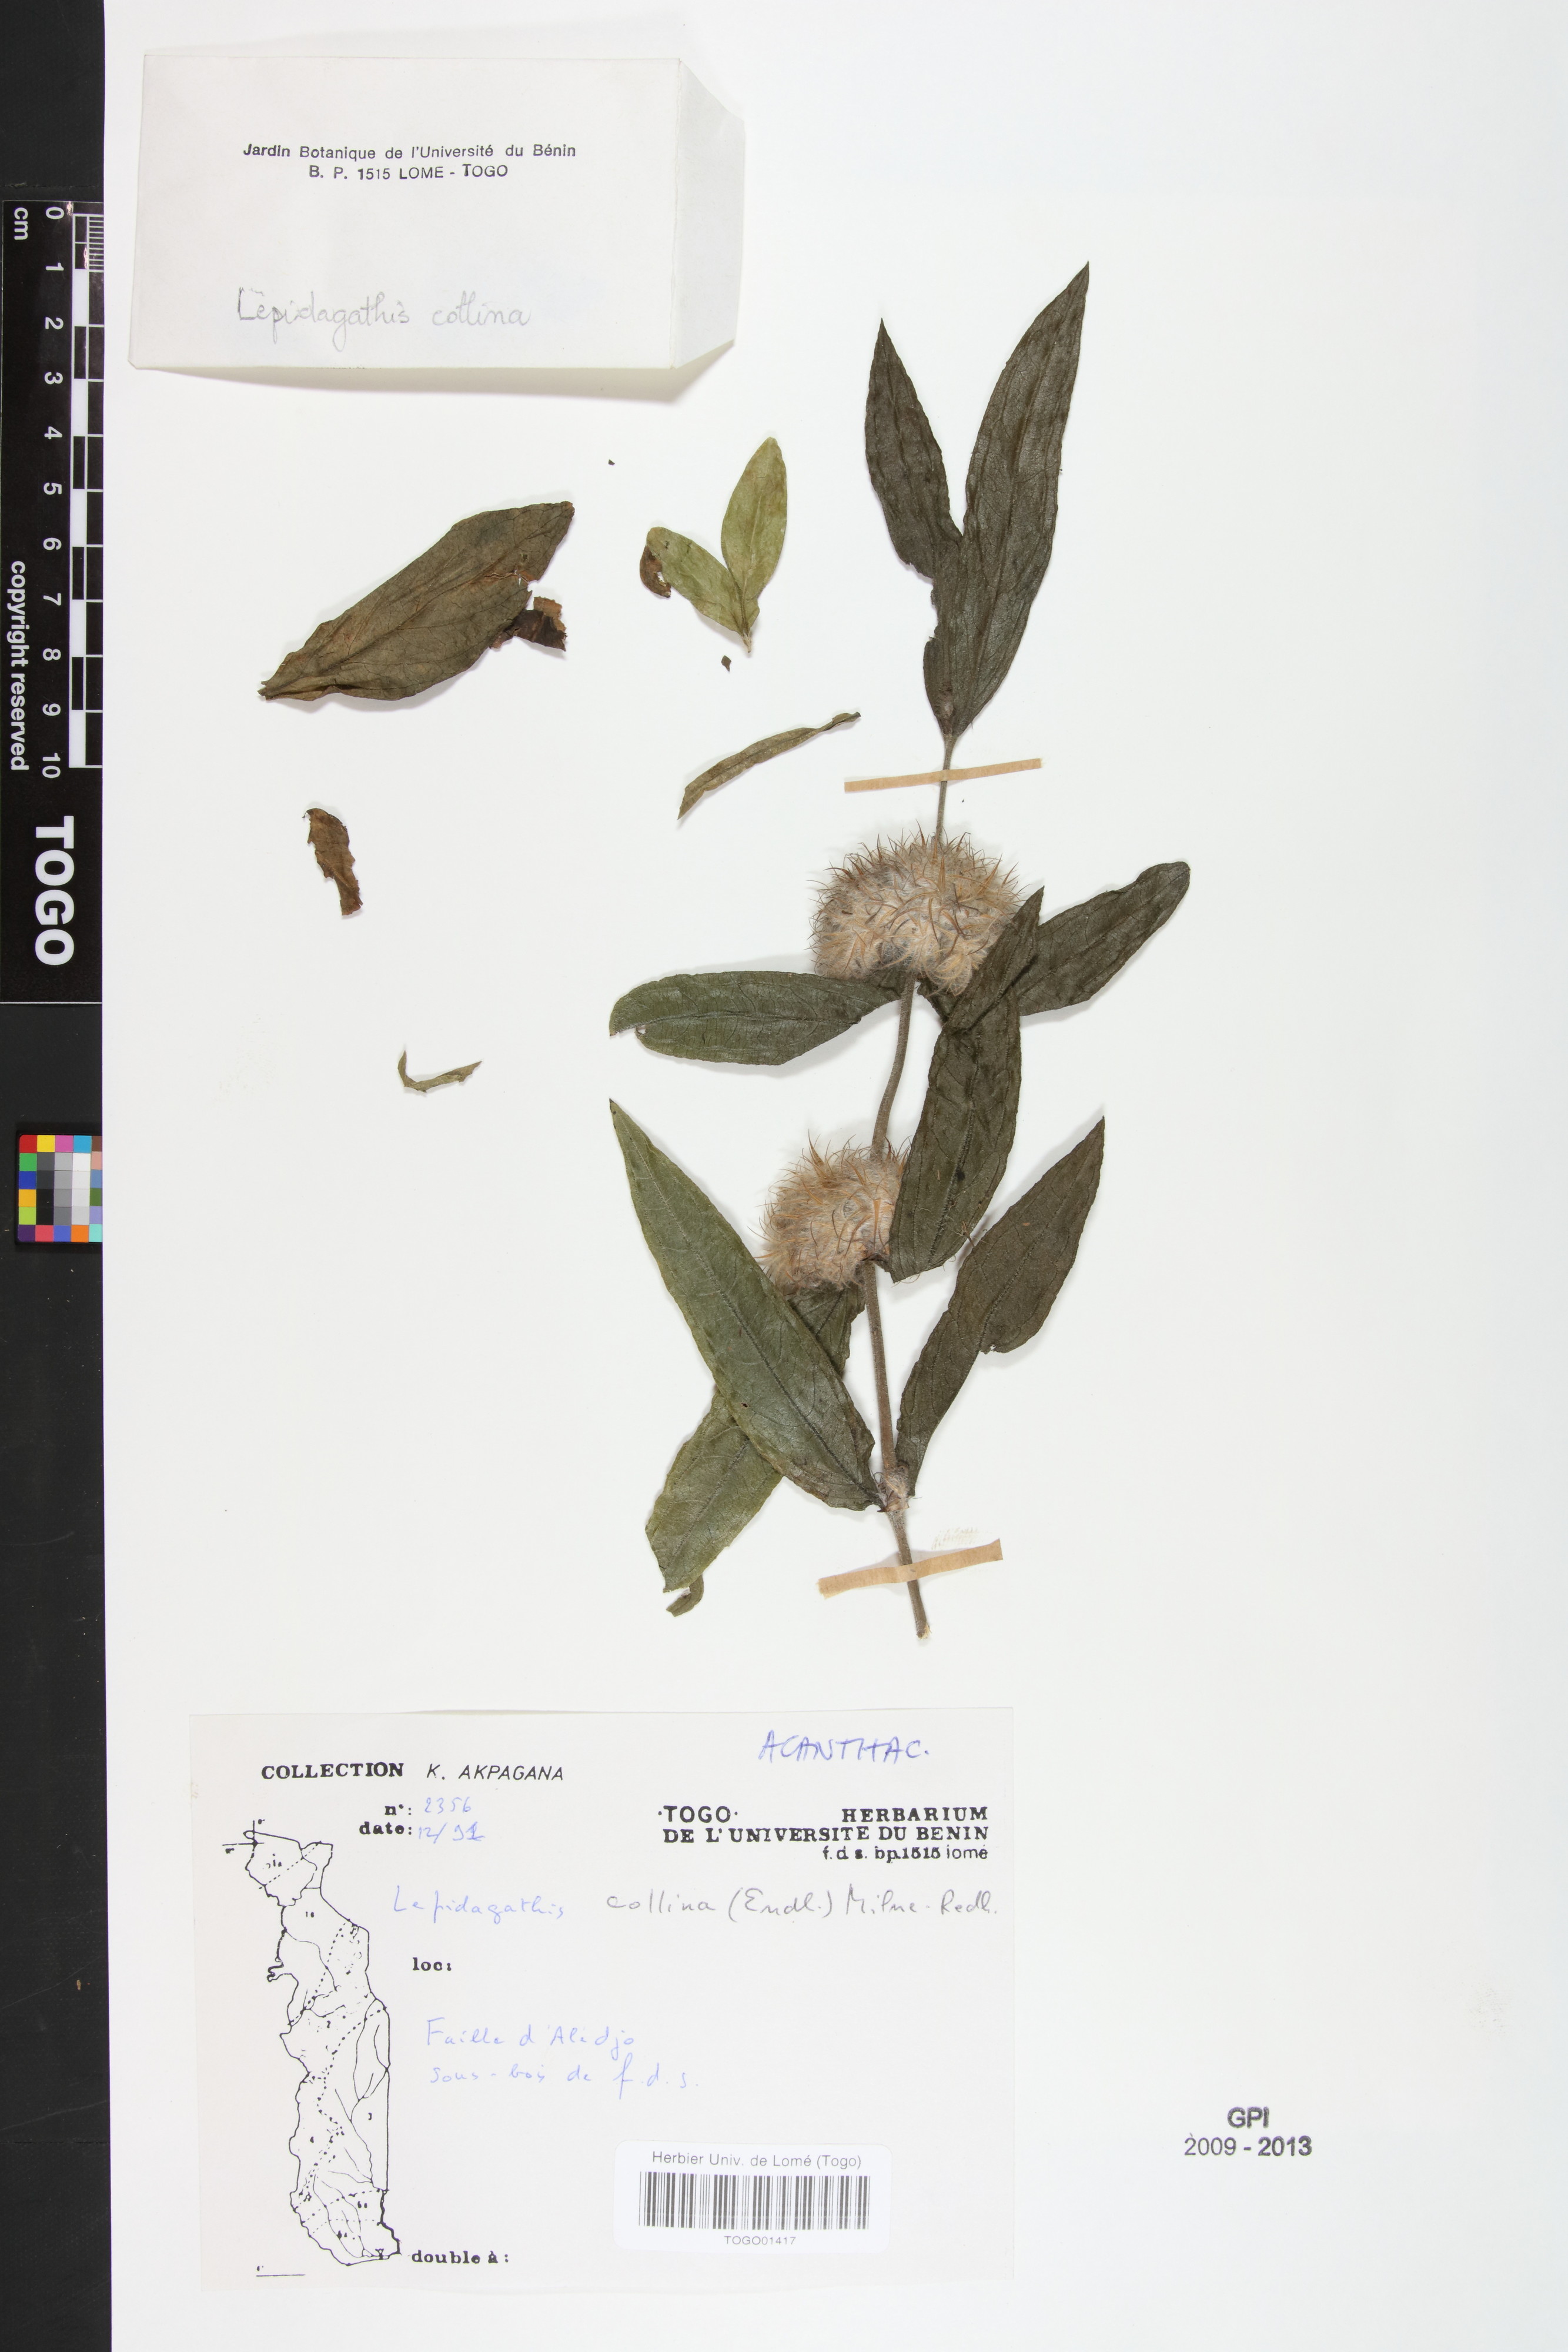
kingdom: Plantae
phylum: Tracheophyta
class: Magnoliopsida
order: Lamiales
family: Acanthaceae
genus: Lepidagathis
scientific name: Lepidagathis collina
